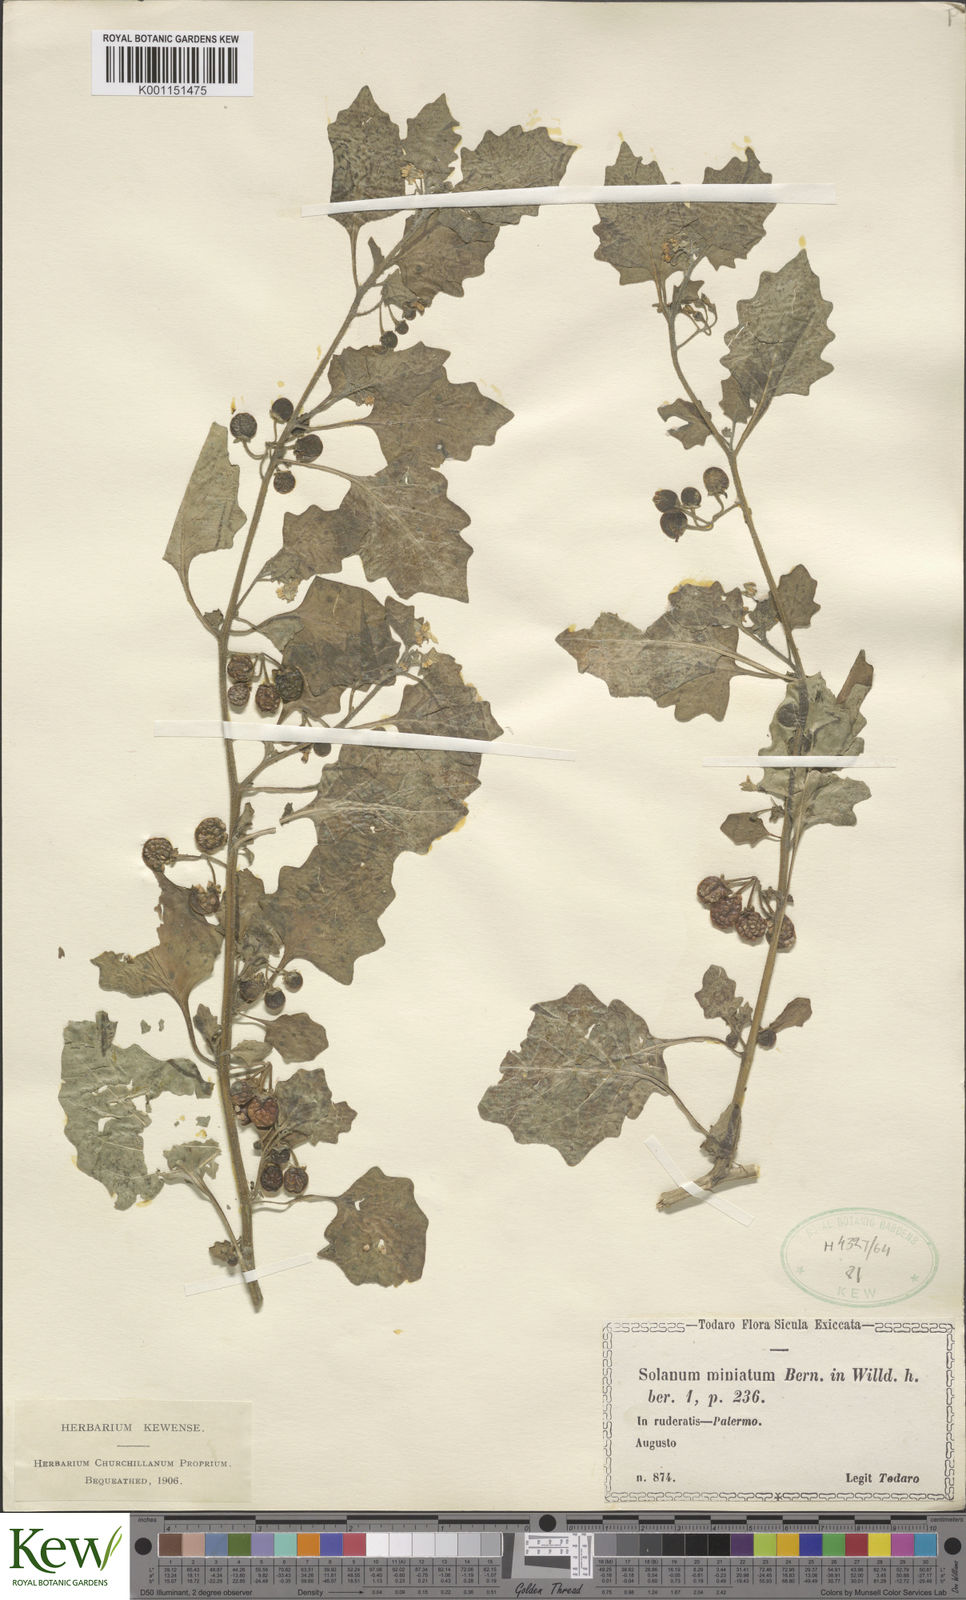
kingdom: Plantae
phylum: Tracheophyta
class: Magnoliopsida
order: Solanales
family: Solanaceae
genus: Solanum
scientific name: Solanum alatum
